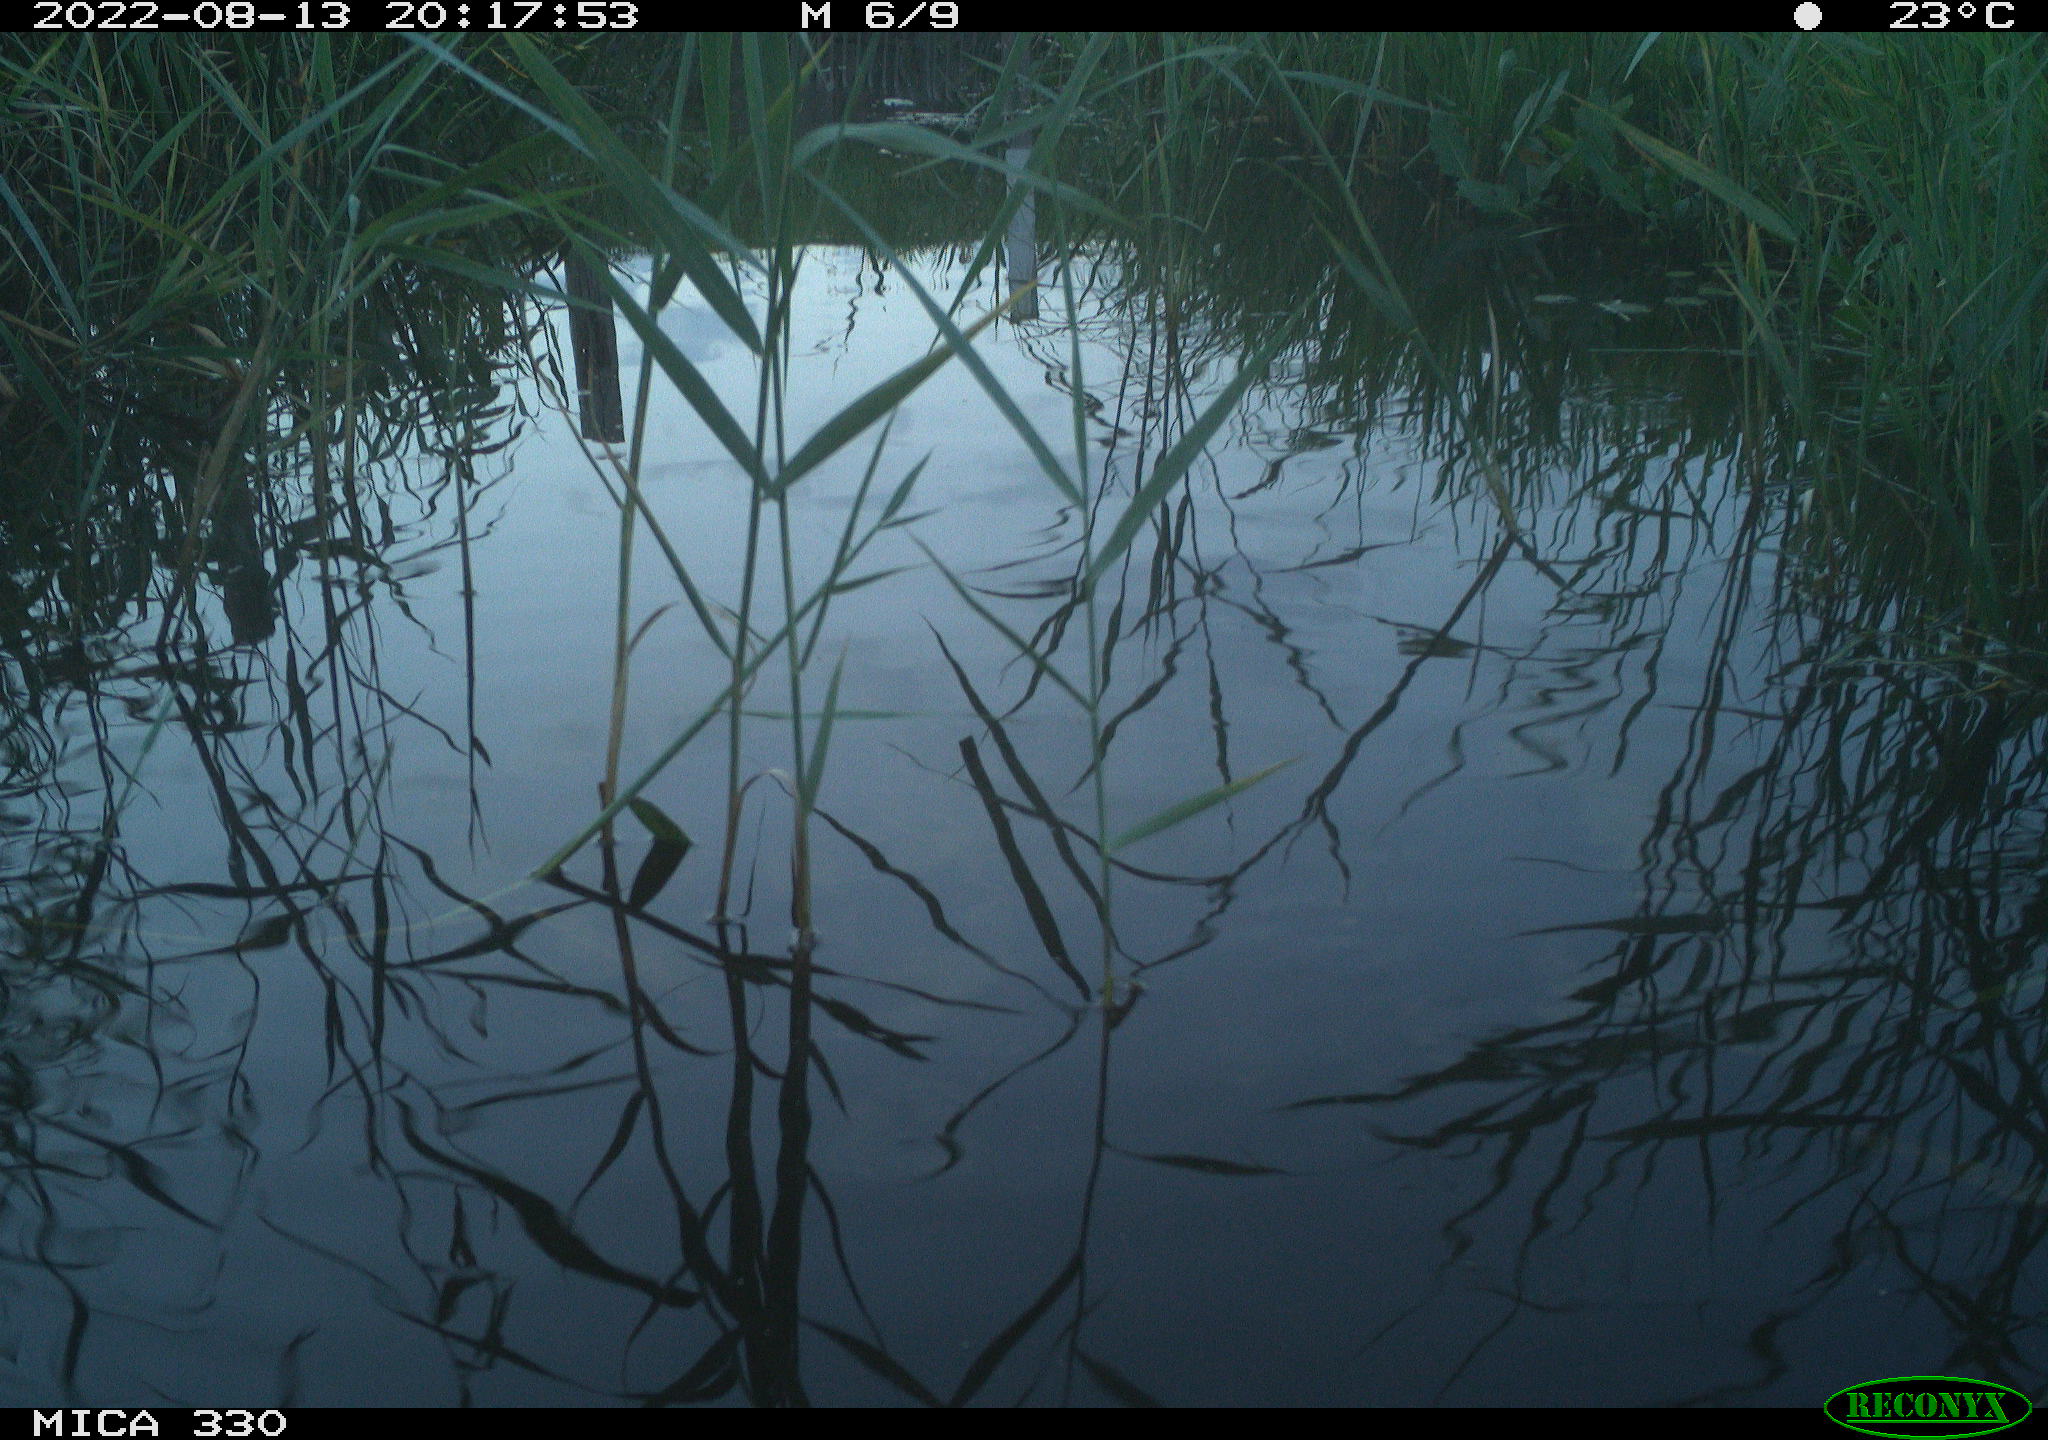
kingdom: Animalia
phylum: Chordata
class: Aves
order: Gruiformes
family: Rallidae
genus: Gallinula
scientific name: Gallinula chloropus
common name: Common moorhen
